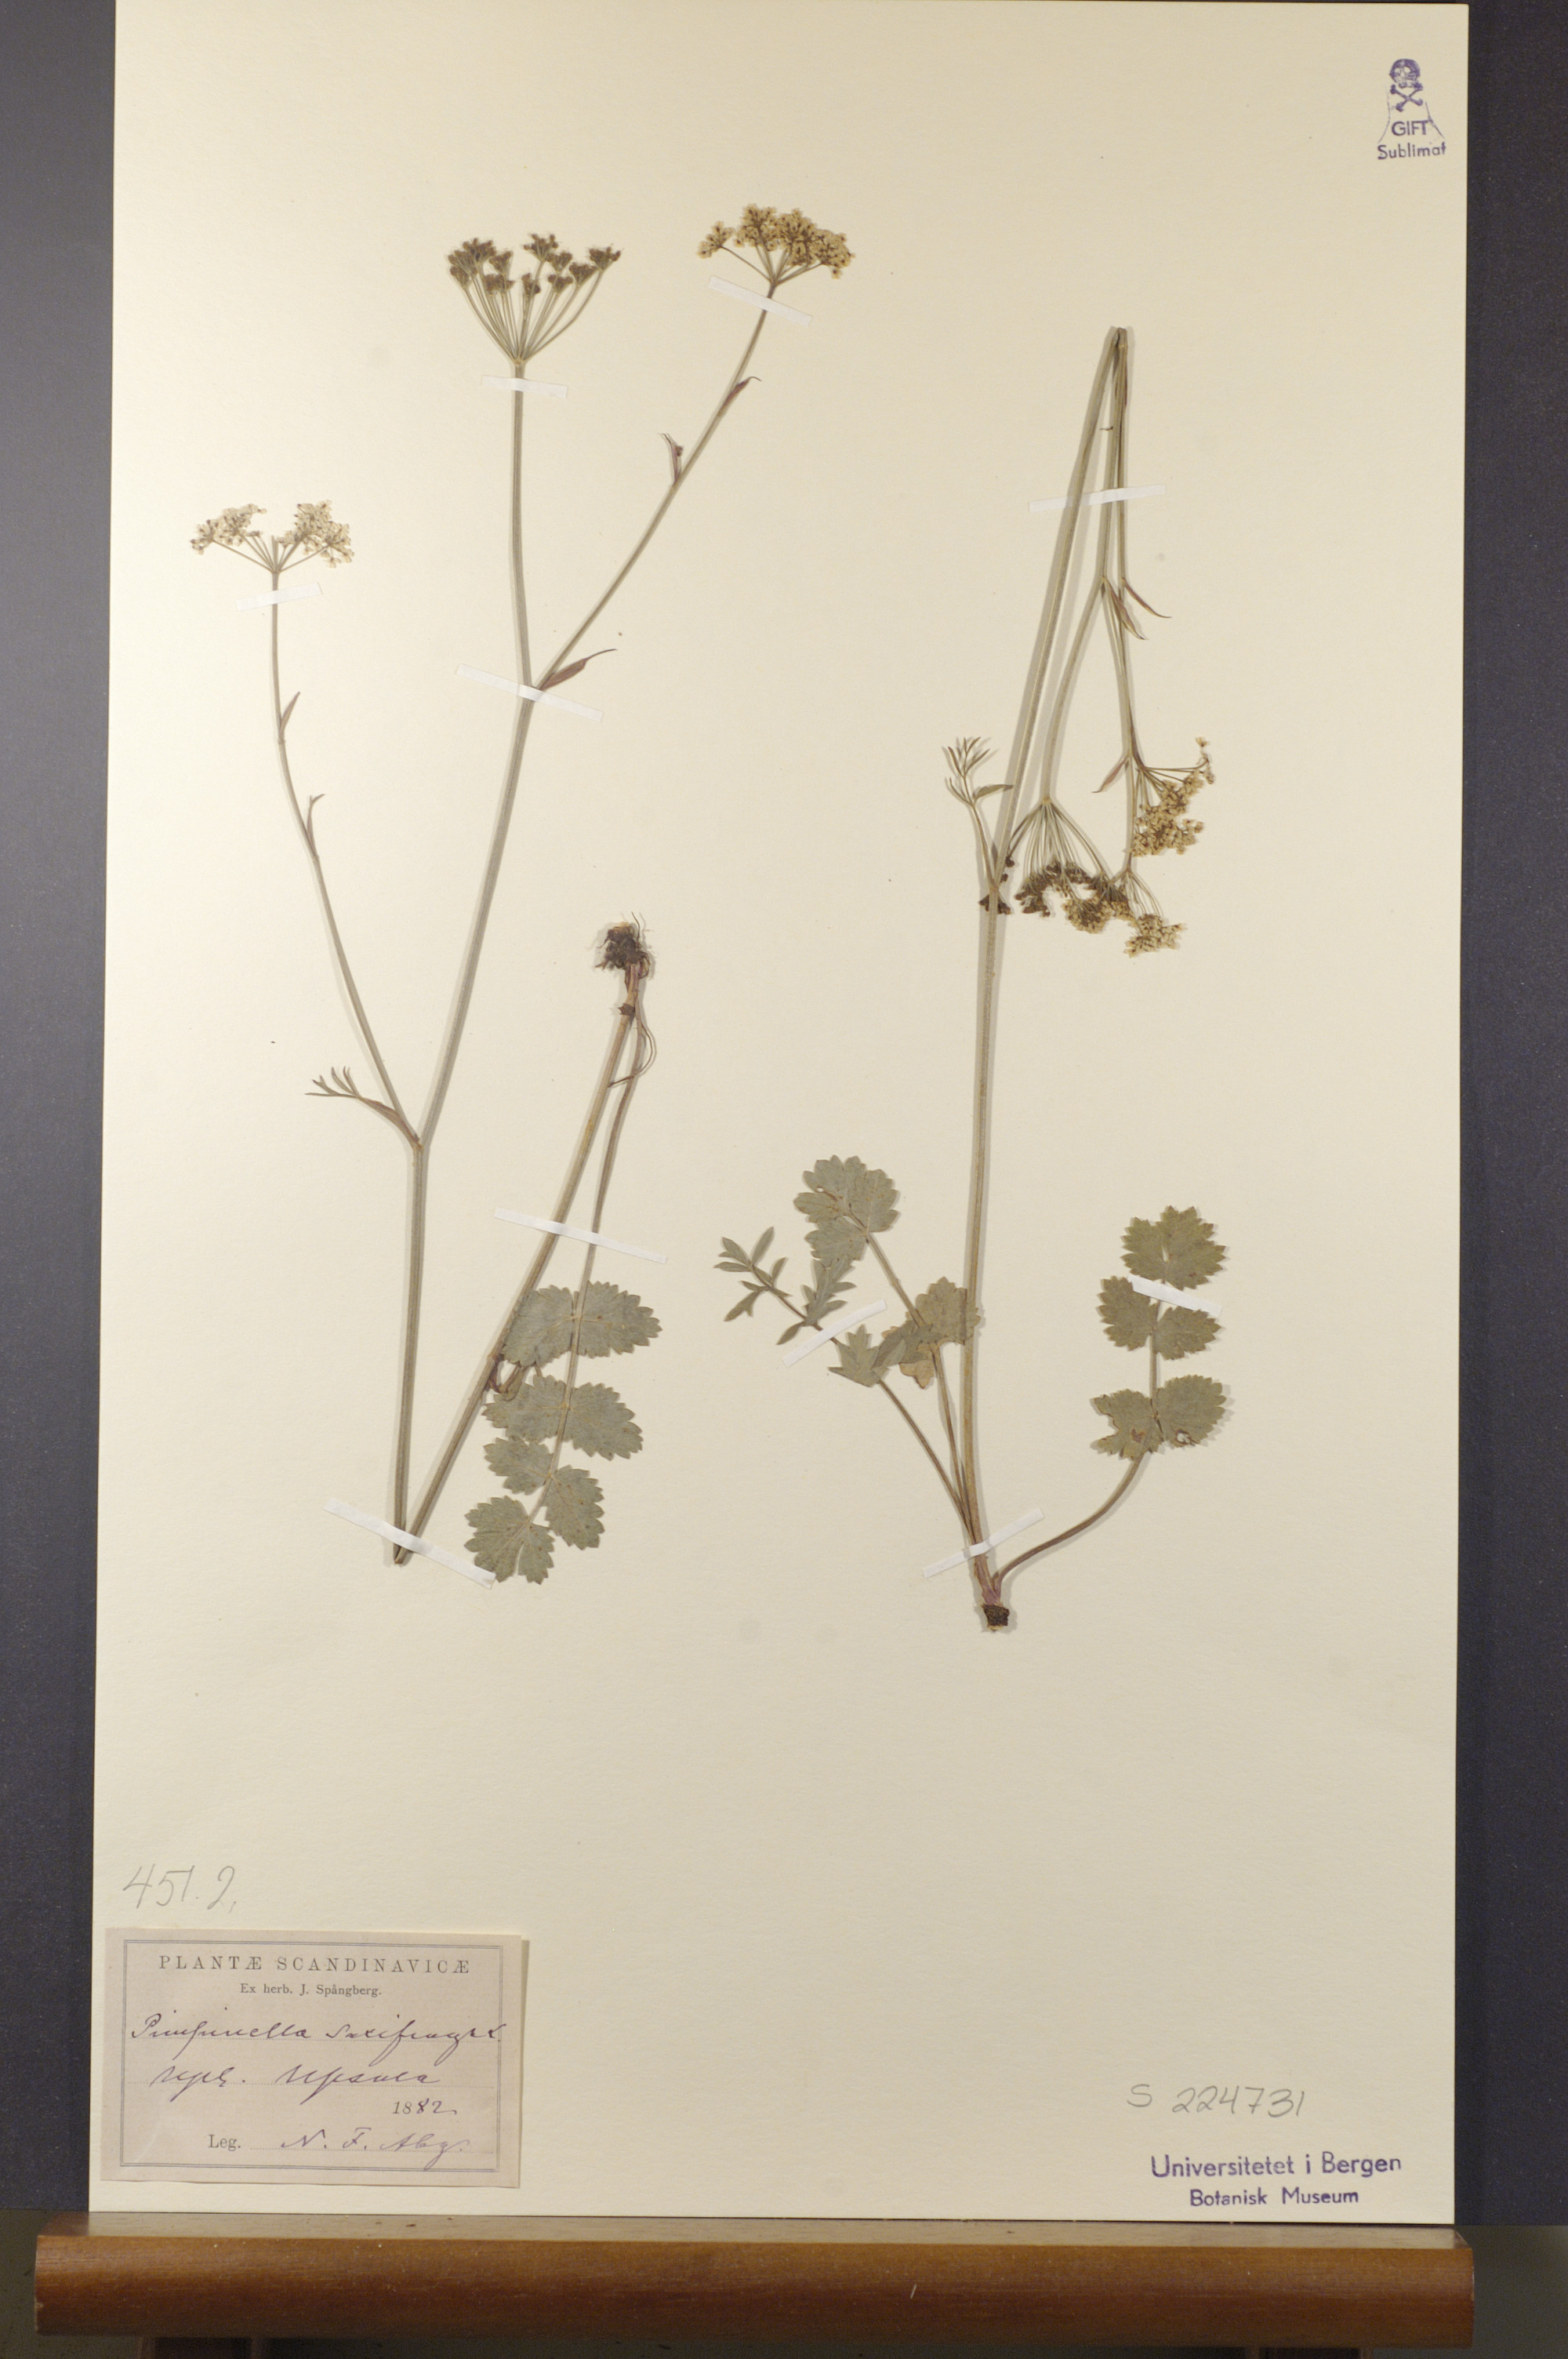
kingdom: Plantae
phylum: Tracheophyta
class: Magnoliopsida
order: Apiales
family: Apiaceae
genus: Pimpinella
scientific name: Pimpinella saxifraga
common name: Burnet-saxifrage
